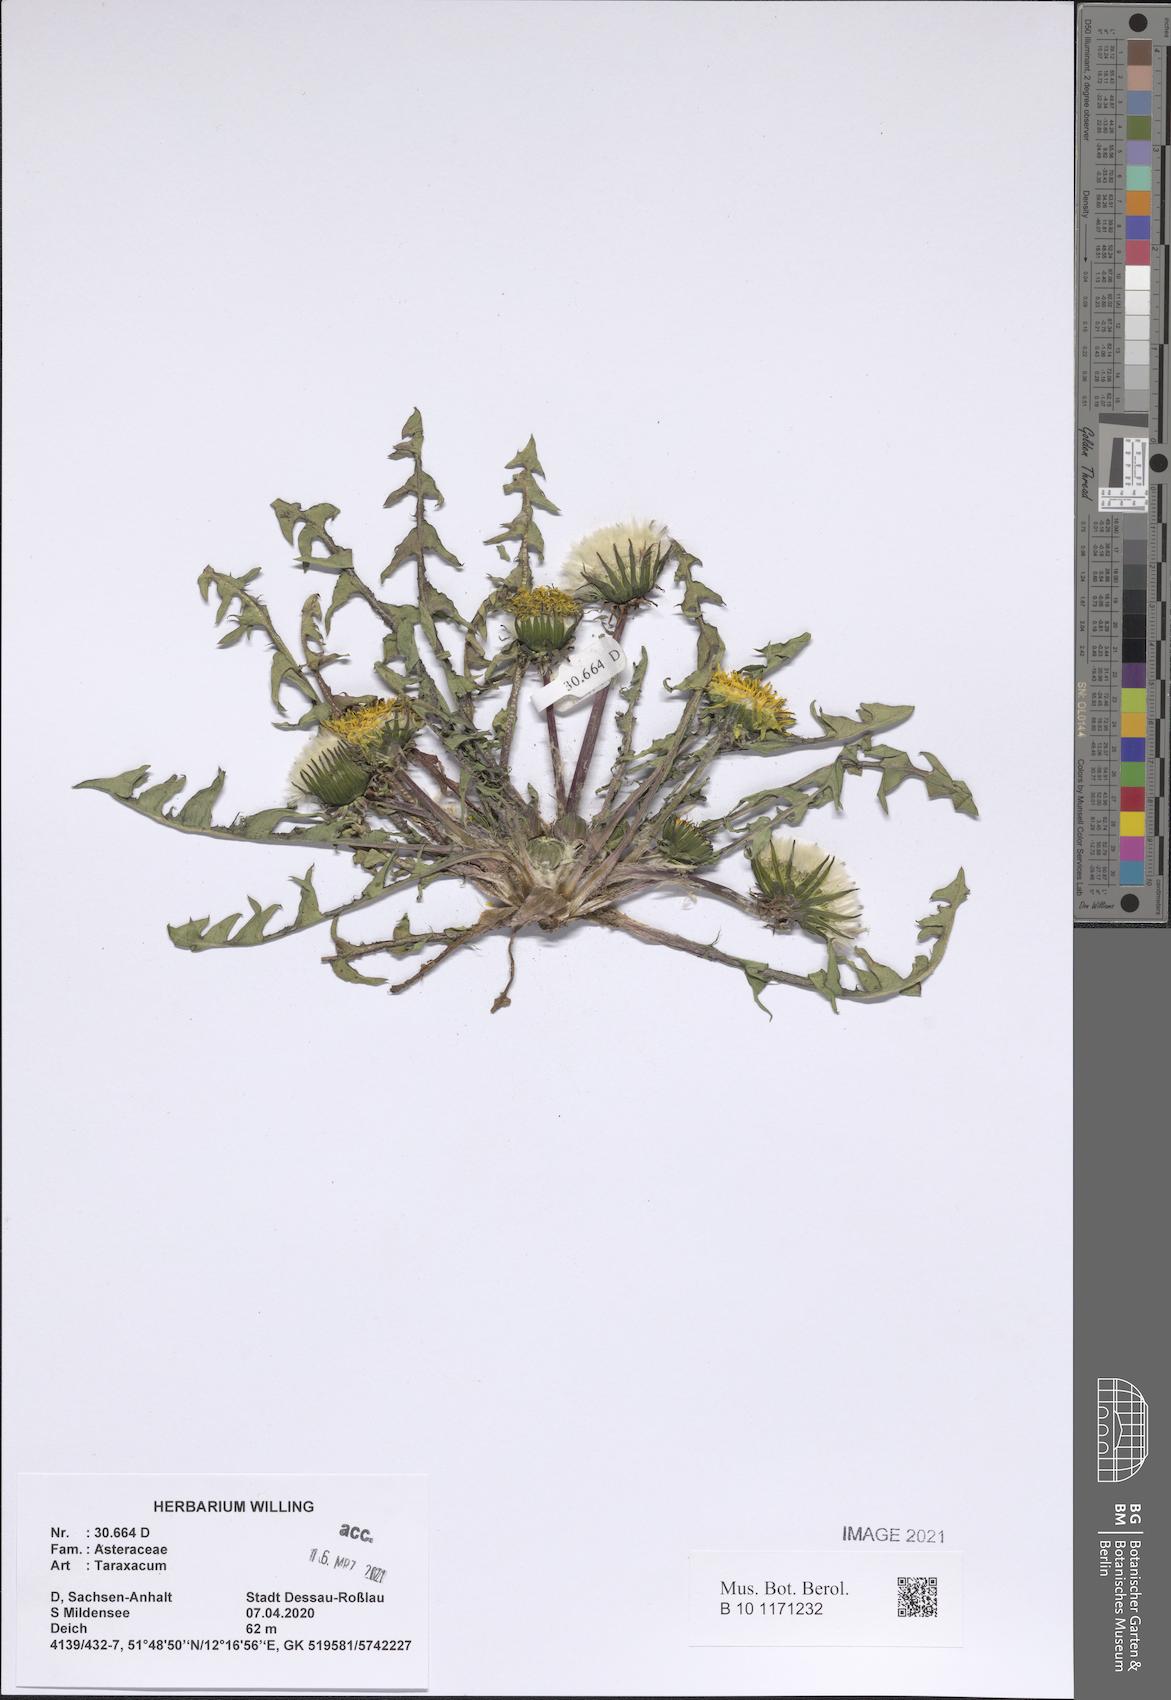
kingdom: Plantae
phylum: Tracheophyta
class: Magnoliopsida
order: Asterales
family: Asteraceae
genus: Taraxacum
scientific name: Taraxacum
